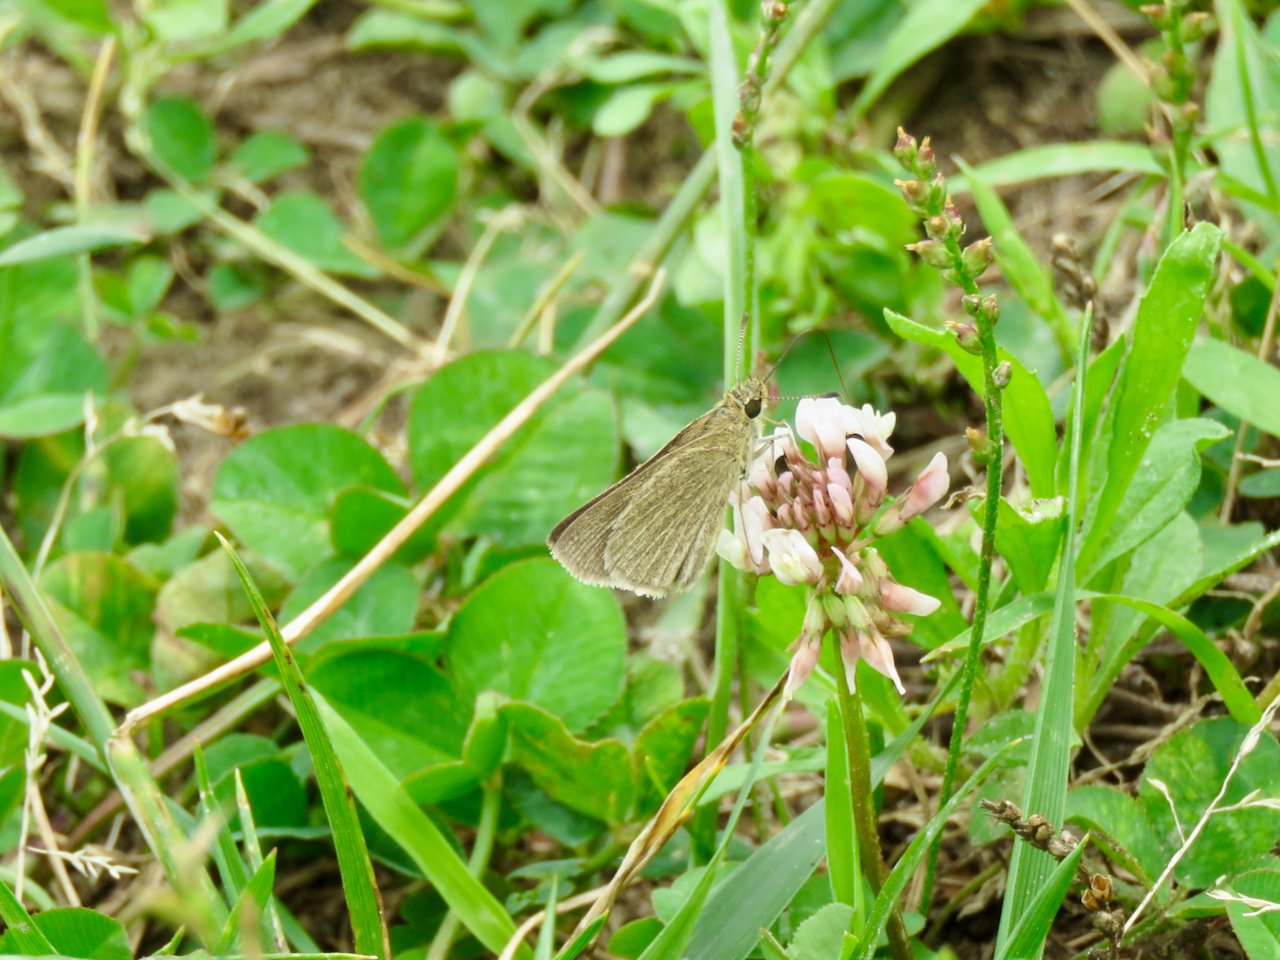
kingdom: Animalia
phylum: Arthropoda
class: Insecta
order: Lepidoptera
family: Hesperiidae
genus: Nastra
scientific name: Nastra lherminier
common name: Swarthy Skipper
